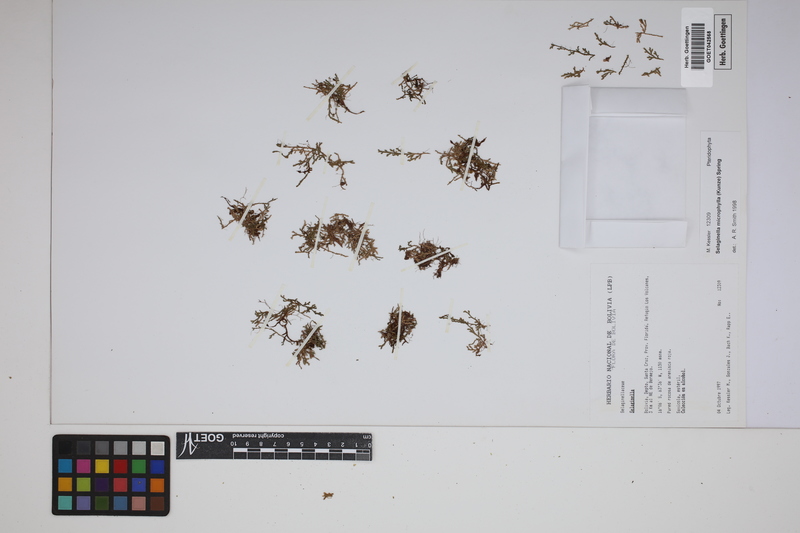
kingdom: Plantae
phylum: Tracheophyta
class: Lycopodiopsida
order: Selaginellales
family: Selaginellaceae
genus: Selaginella
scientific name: Selaginella microphylla
